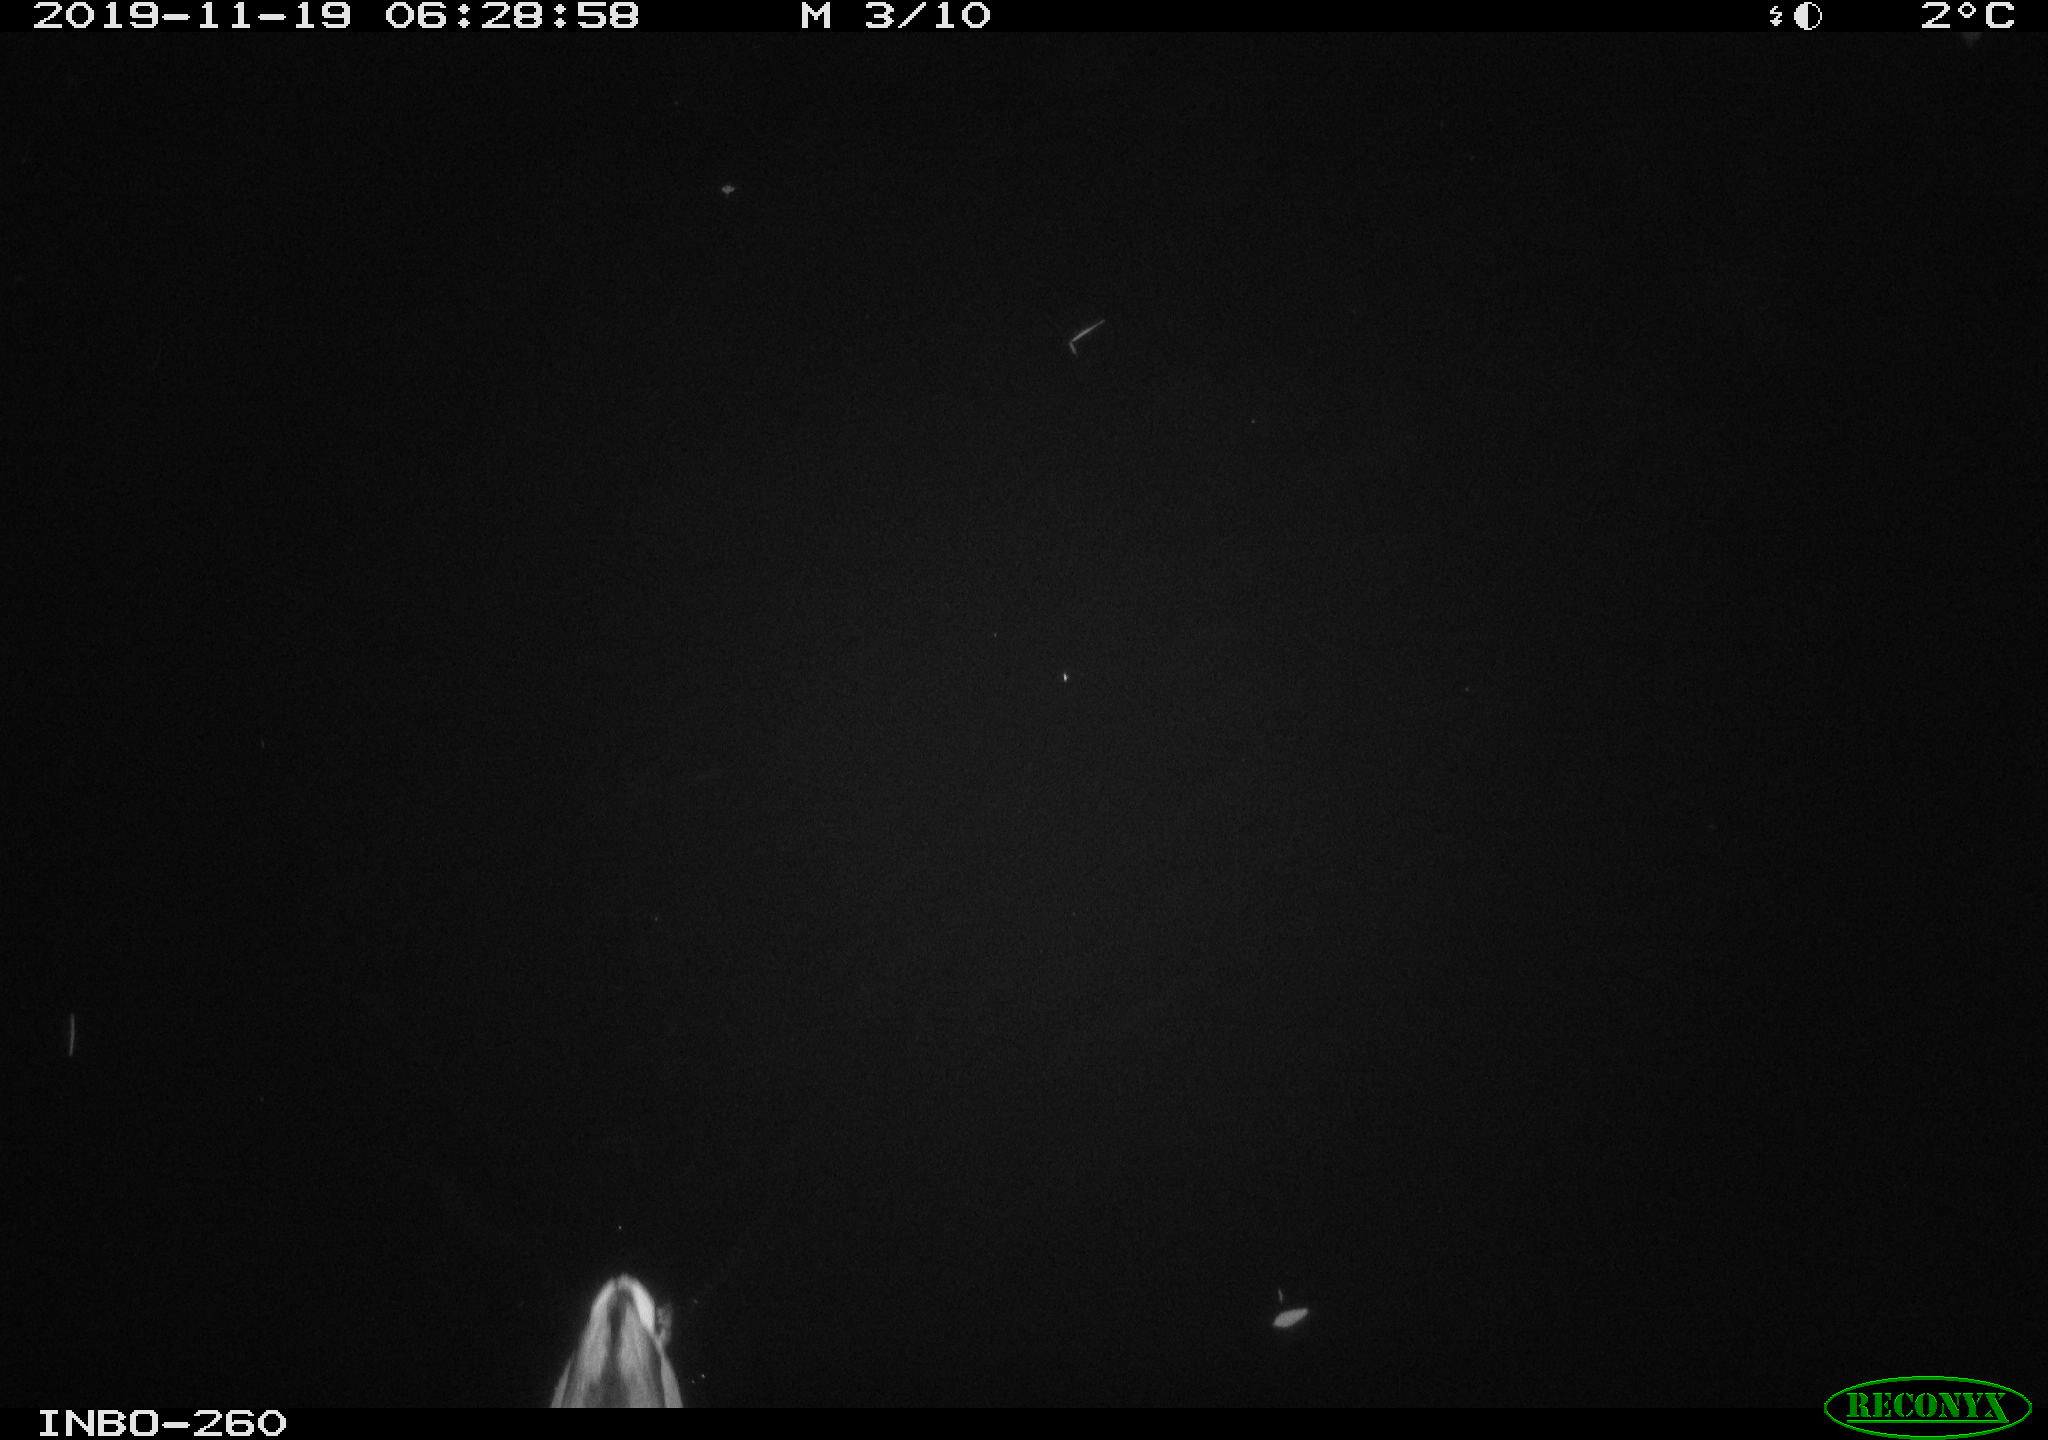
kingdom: Animalia
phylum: Chordata
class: Aves
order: Anseriformes
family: Anatidae
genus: Anas
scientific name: Anas platyrhynchos
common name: Mallard
